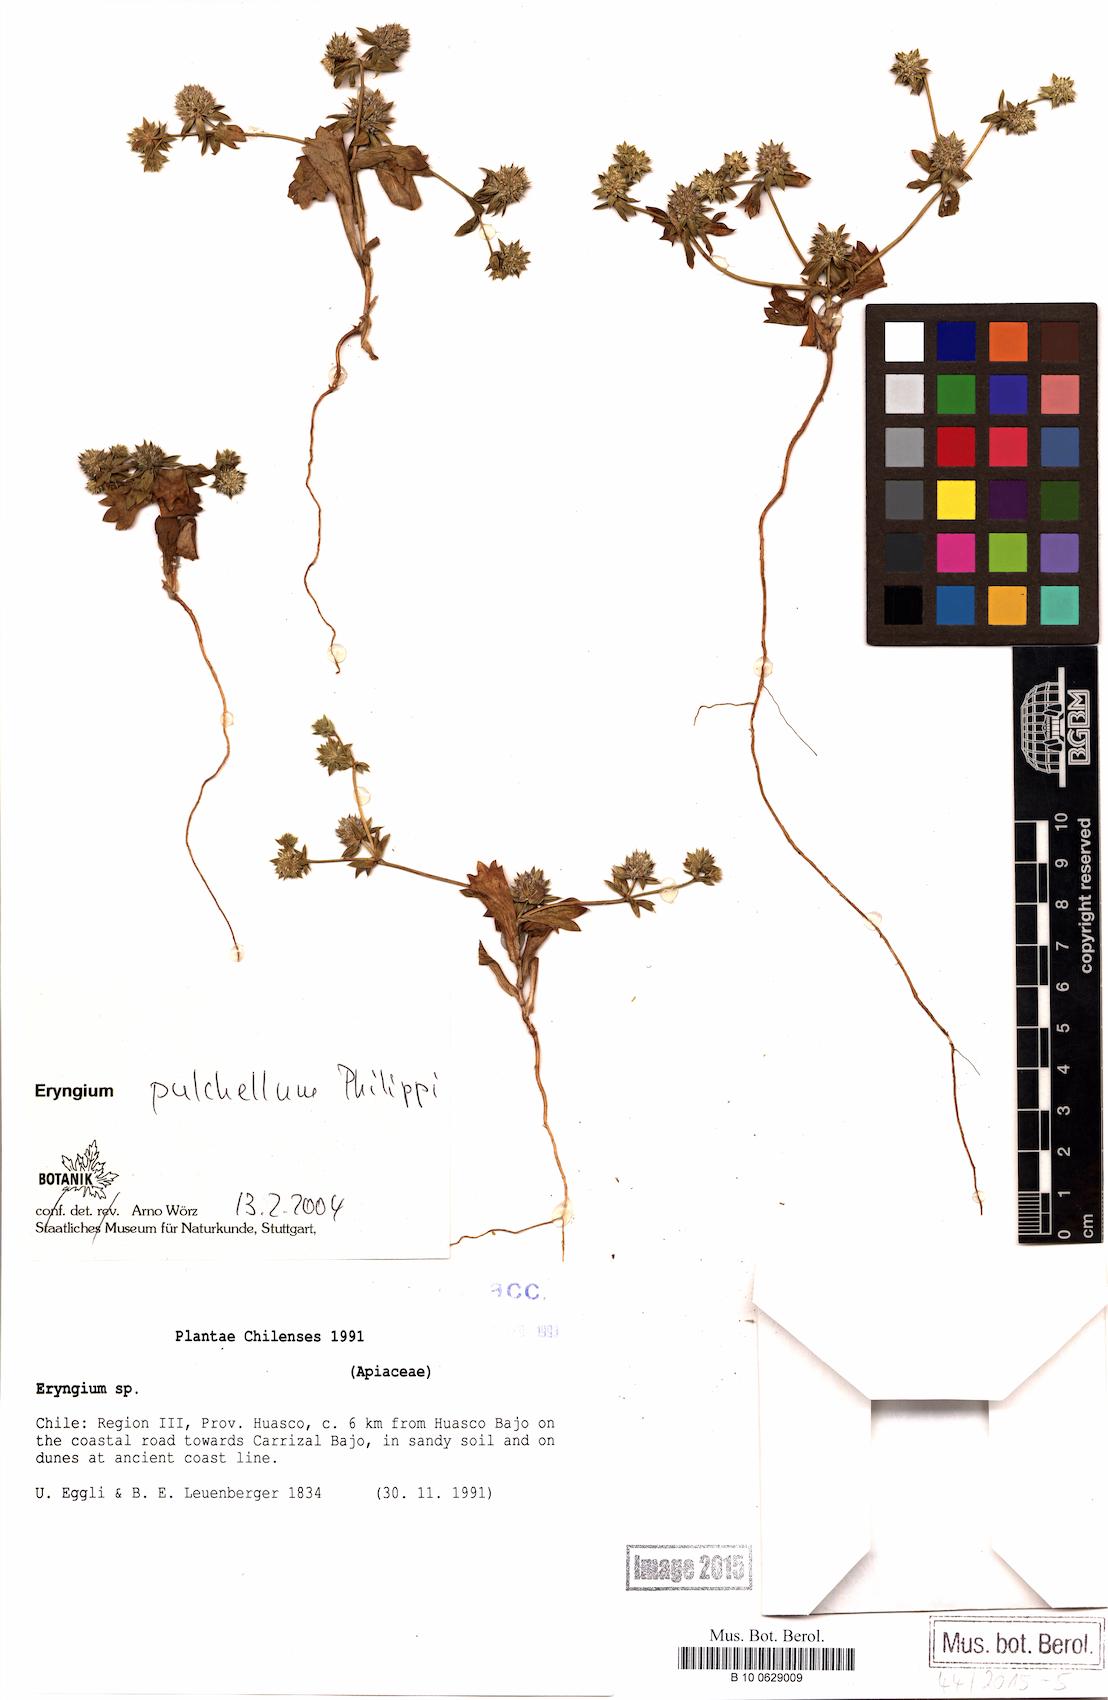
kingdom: Plantae
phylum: Tracheophyta
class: Magnoliopsida
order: Apiales
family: Apiaceae
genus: Eryngium
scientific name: Eryngium pulchellum
